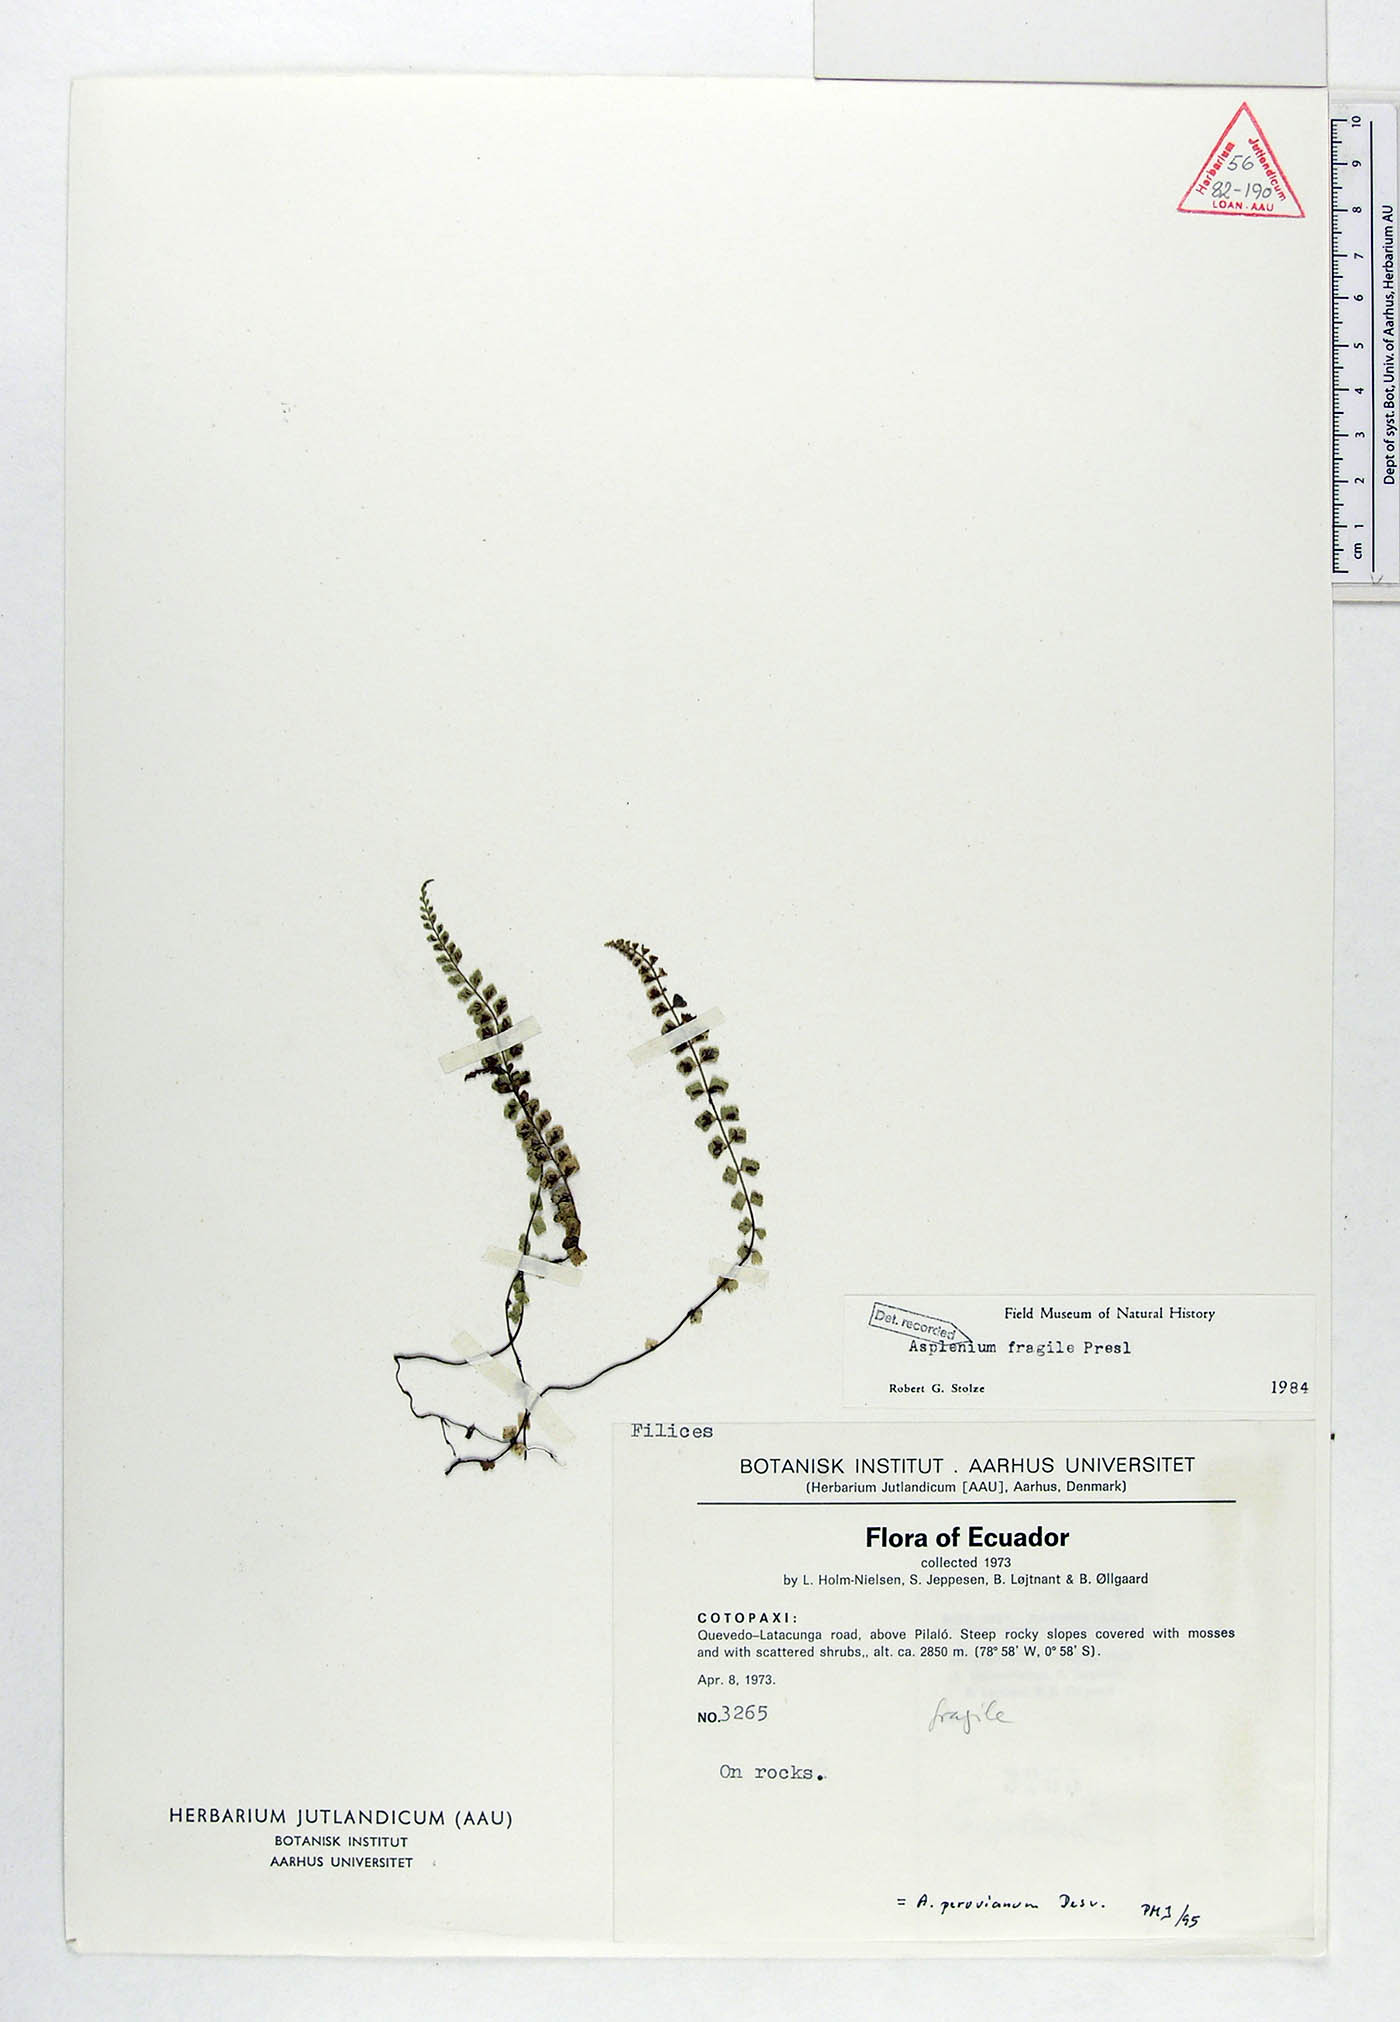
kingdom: Plantae
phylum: Tracheophyta
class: Polypodiopsida
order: Polypodiales
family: Aspleniaceae
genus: Asplenium
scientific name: Asplenium peruvianum
